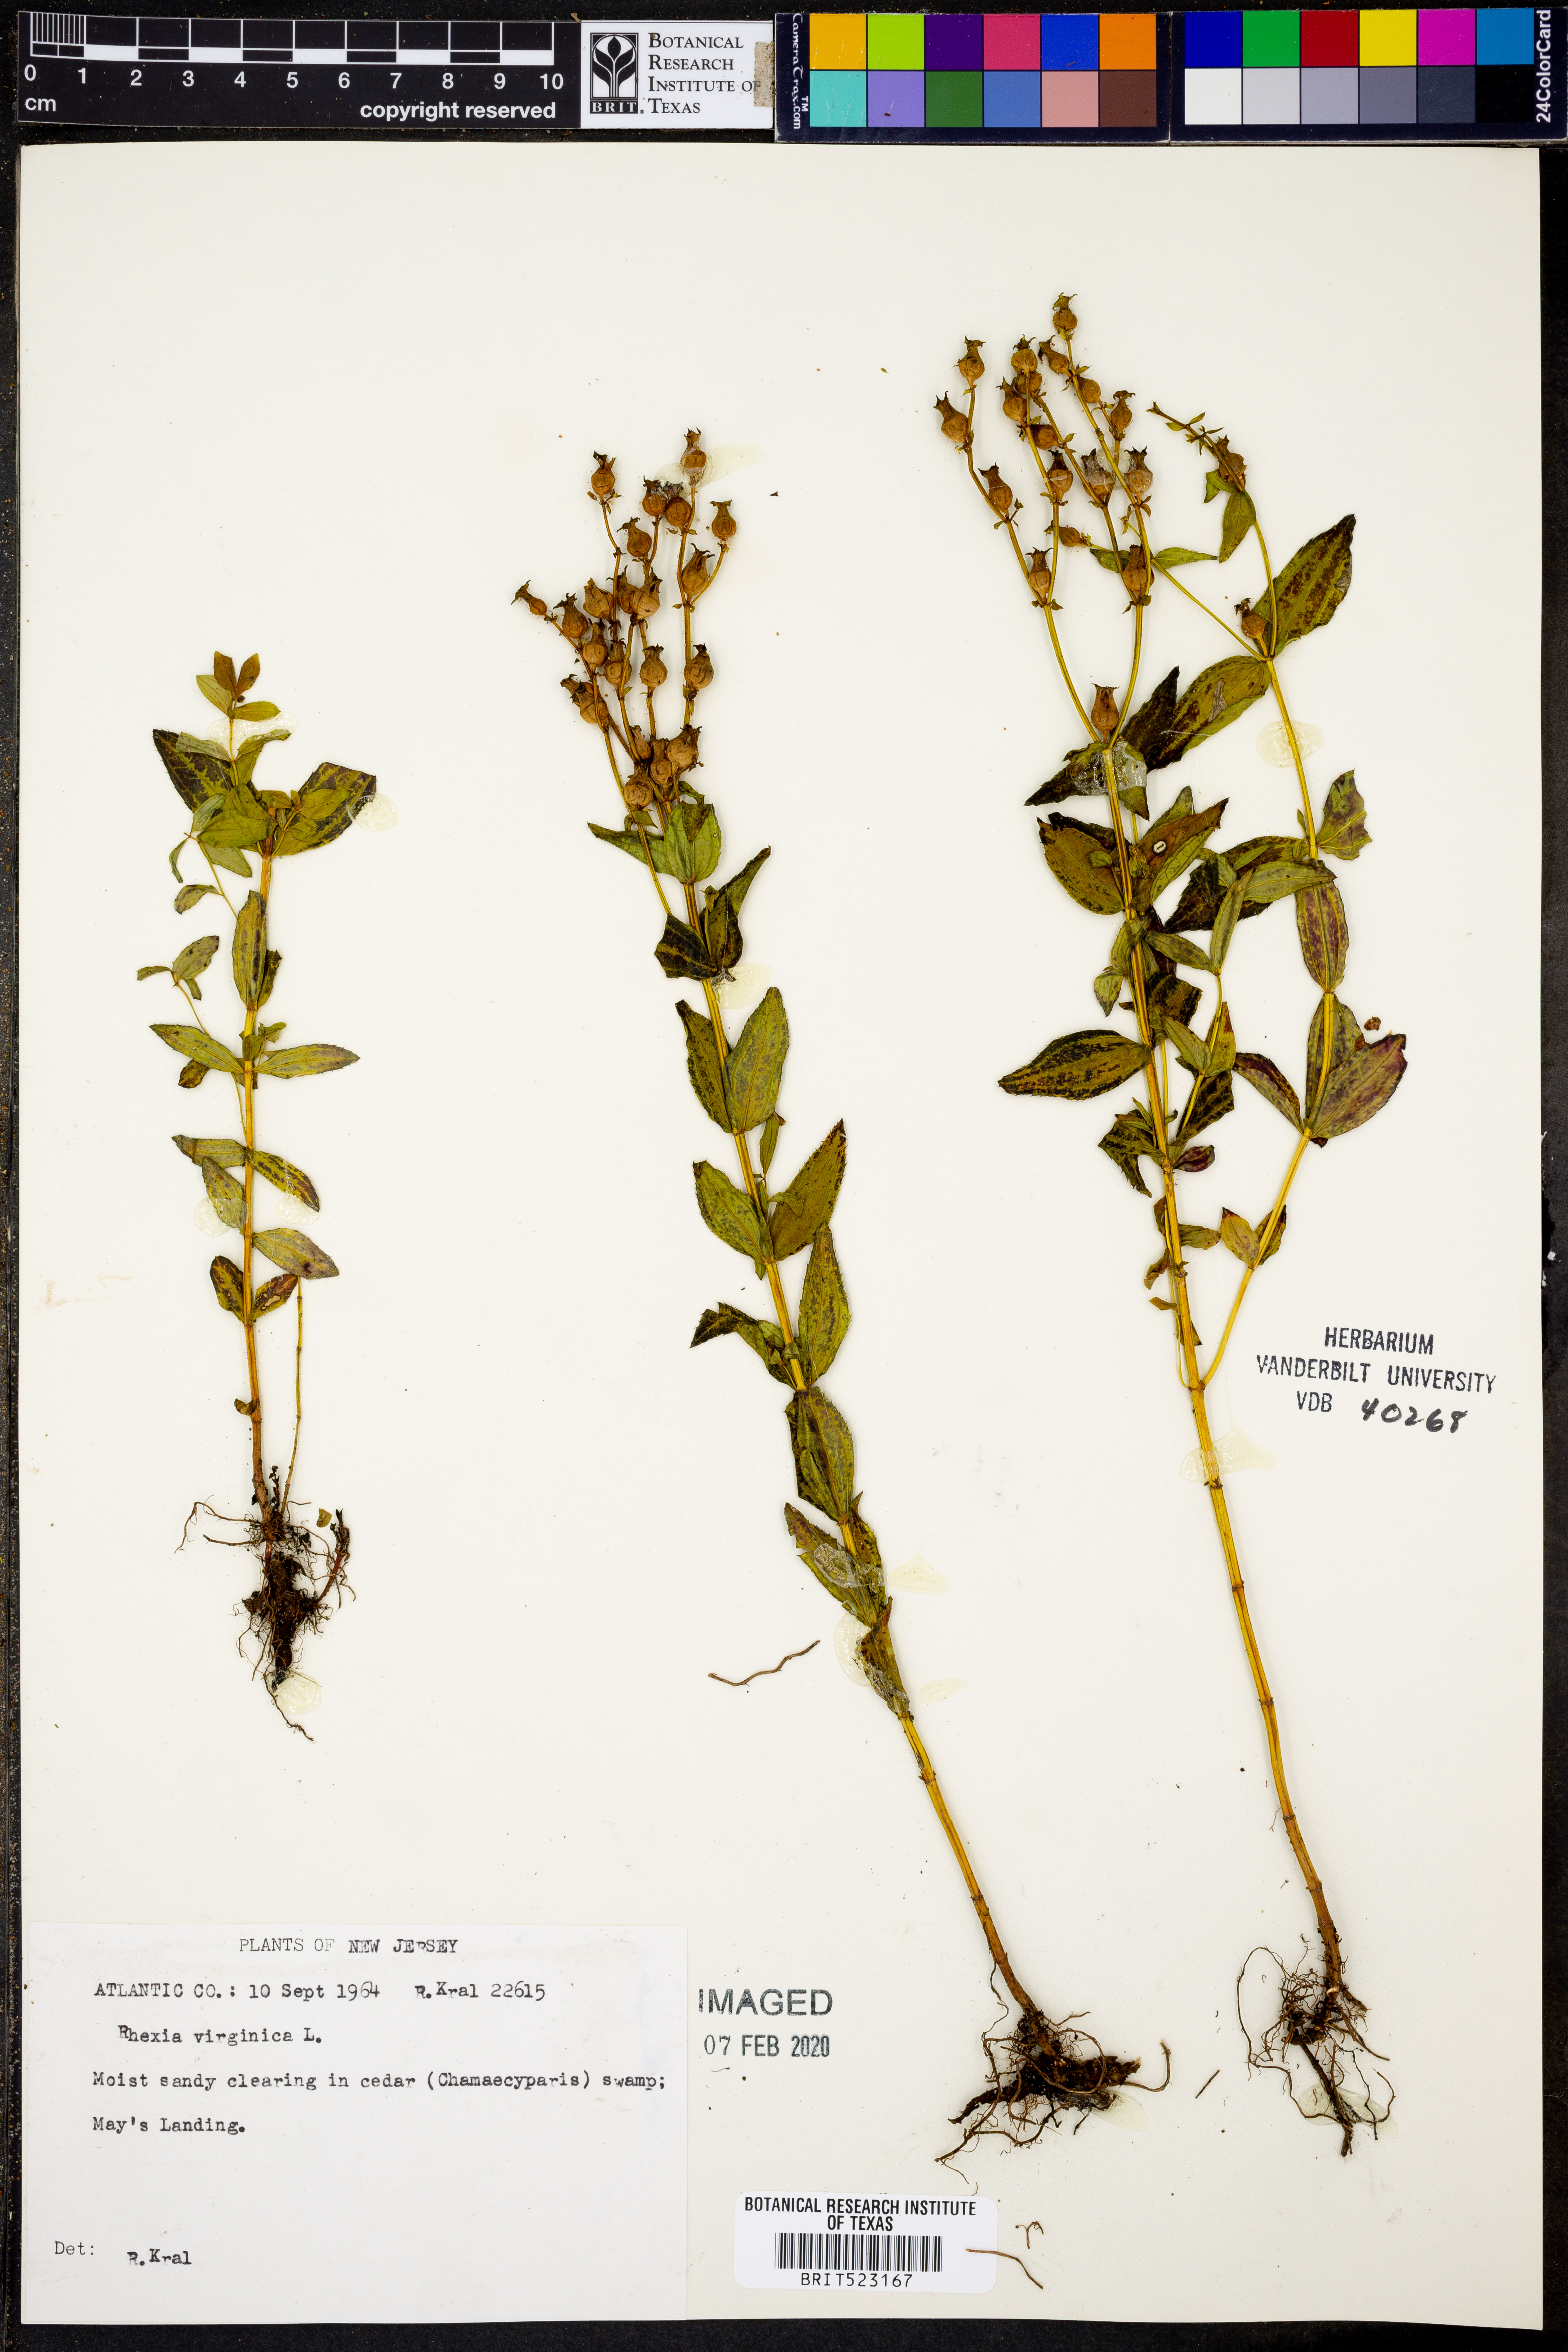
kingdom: Plantae
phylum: Tracheophyta
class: Magnoliopsida
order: Myrtales
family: Melastomataceae
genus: Rhexia
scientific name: Rhexia virginica
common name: Common meadow beauty
